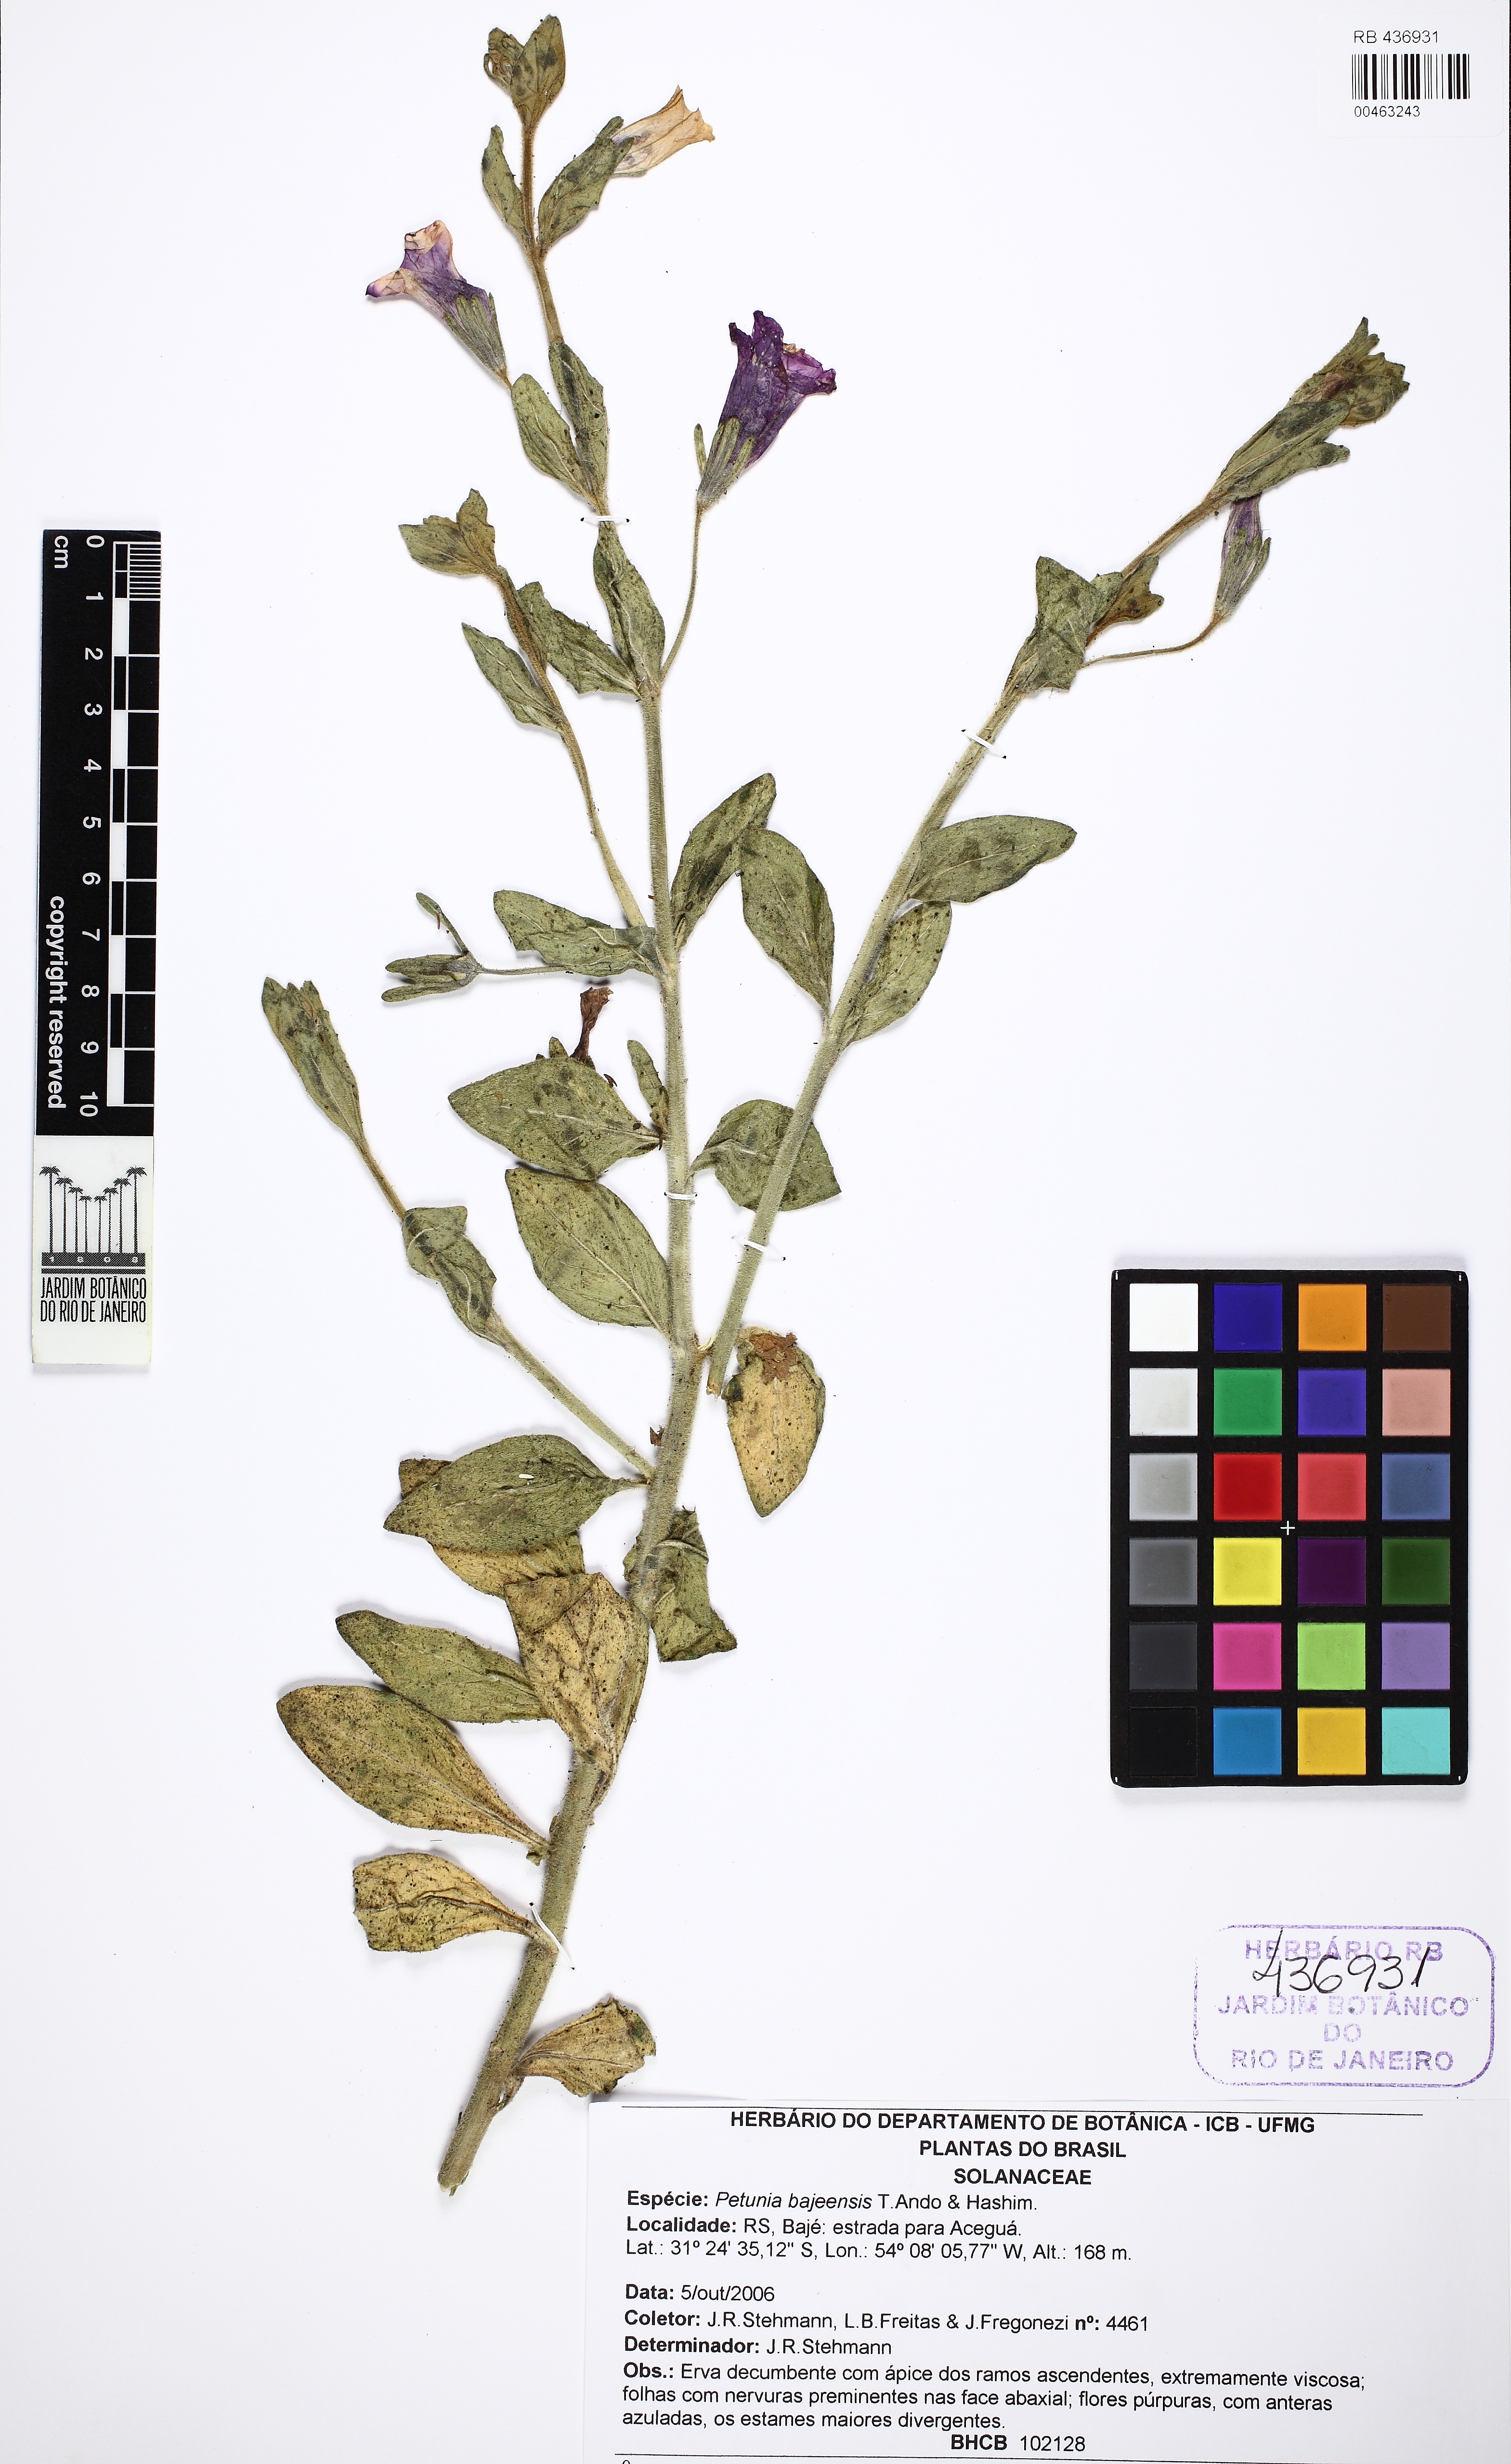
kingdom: Plantae
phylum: Tracheophyta
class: Magnoliopsida
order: Solanales
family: Solanaceae
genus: Petunia
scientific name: Petunia bajeensis
